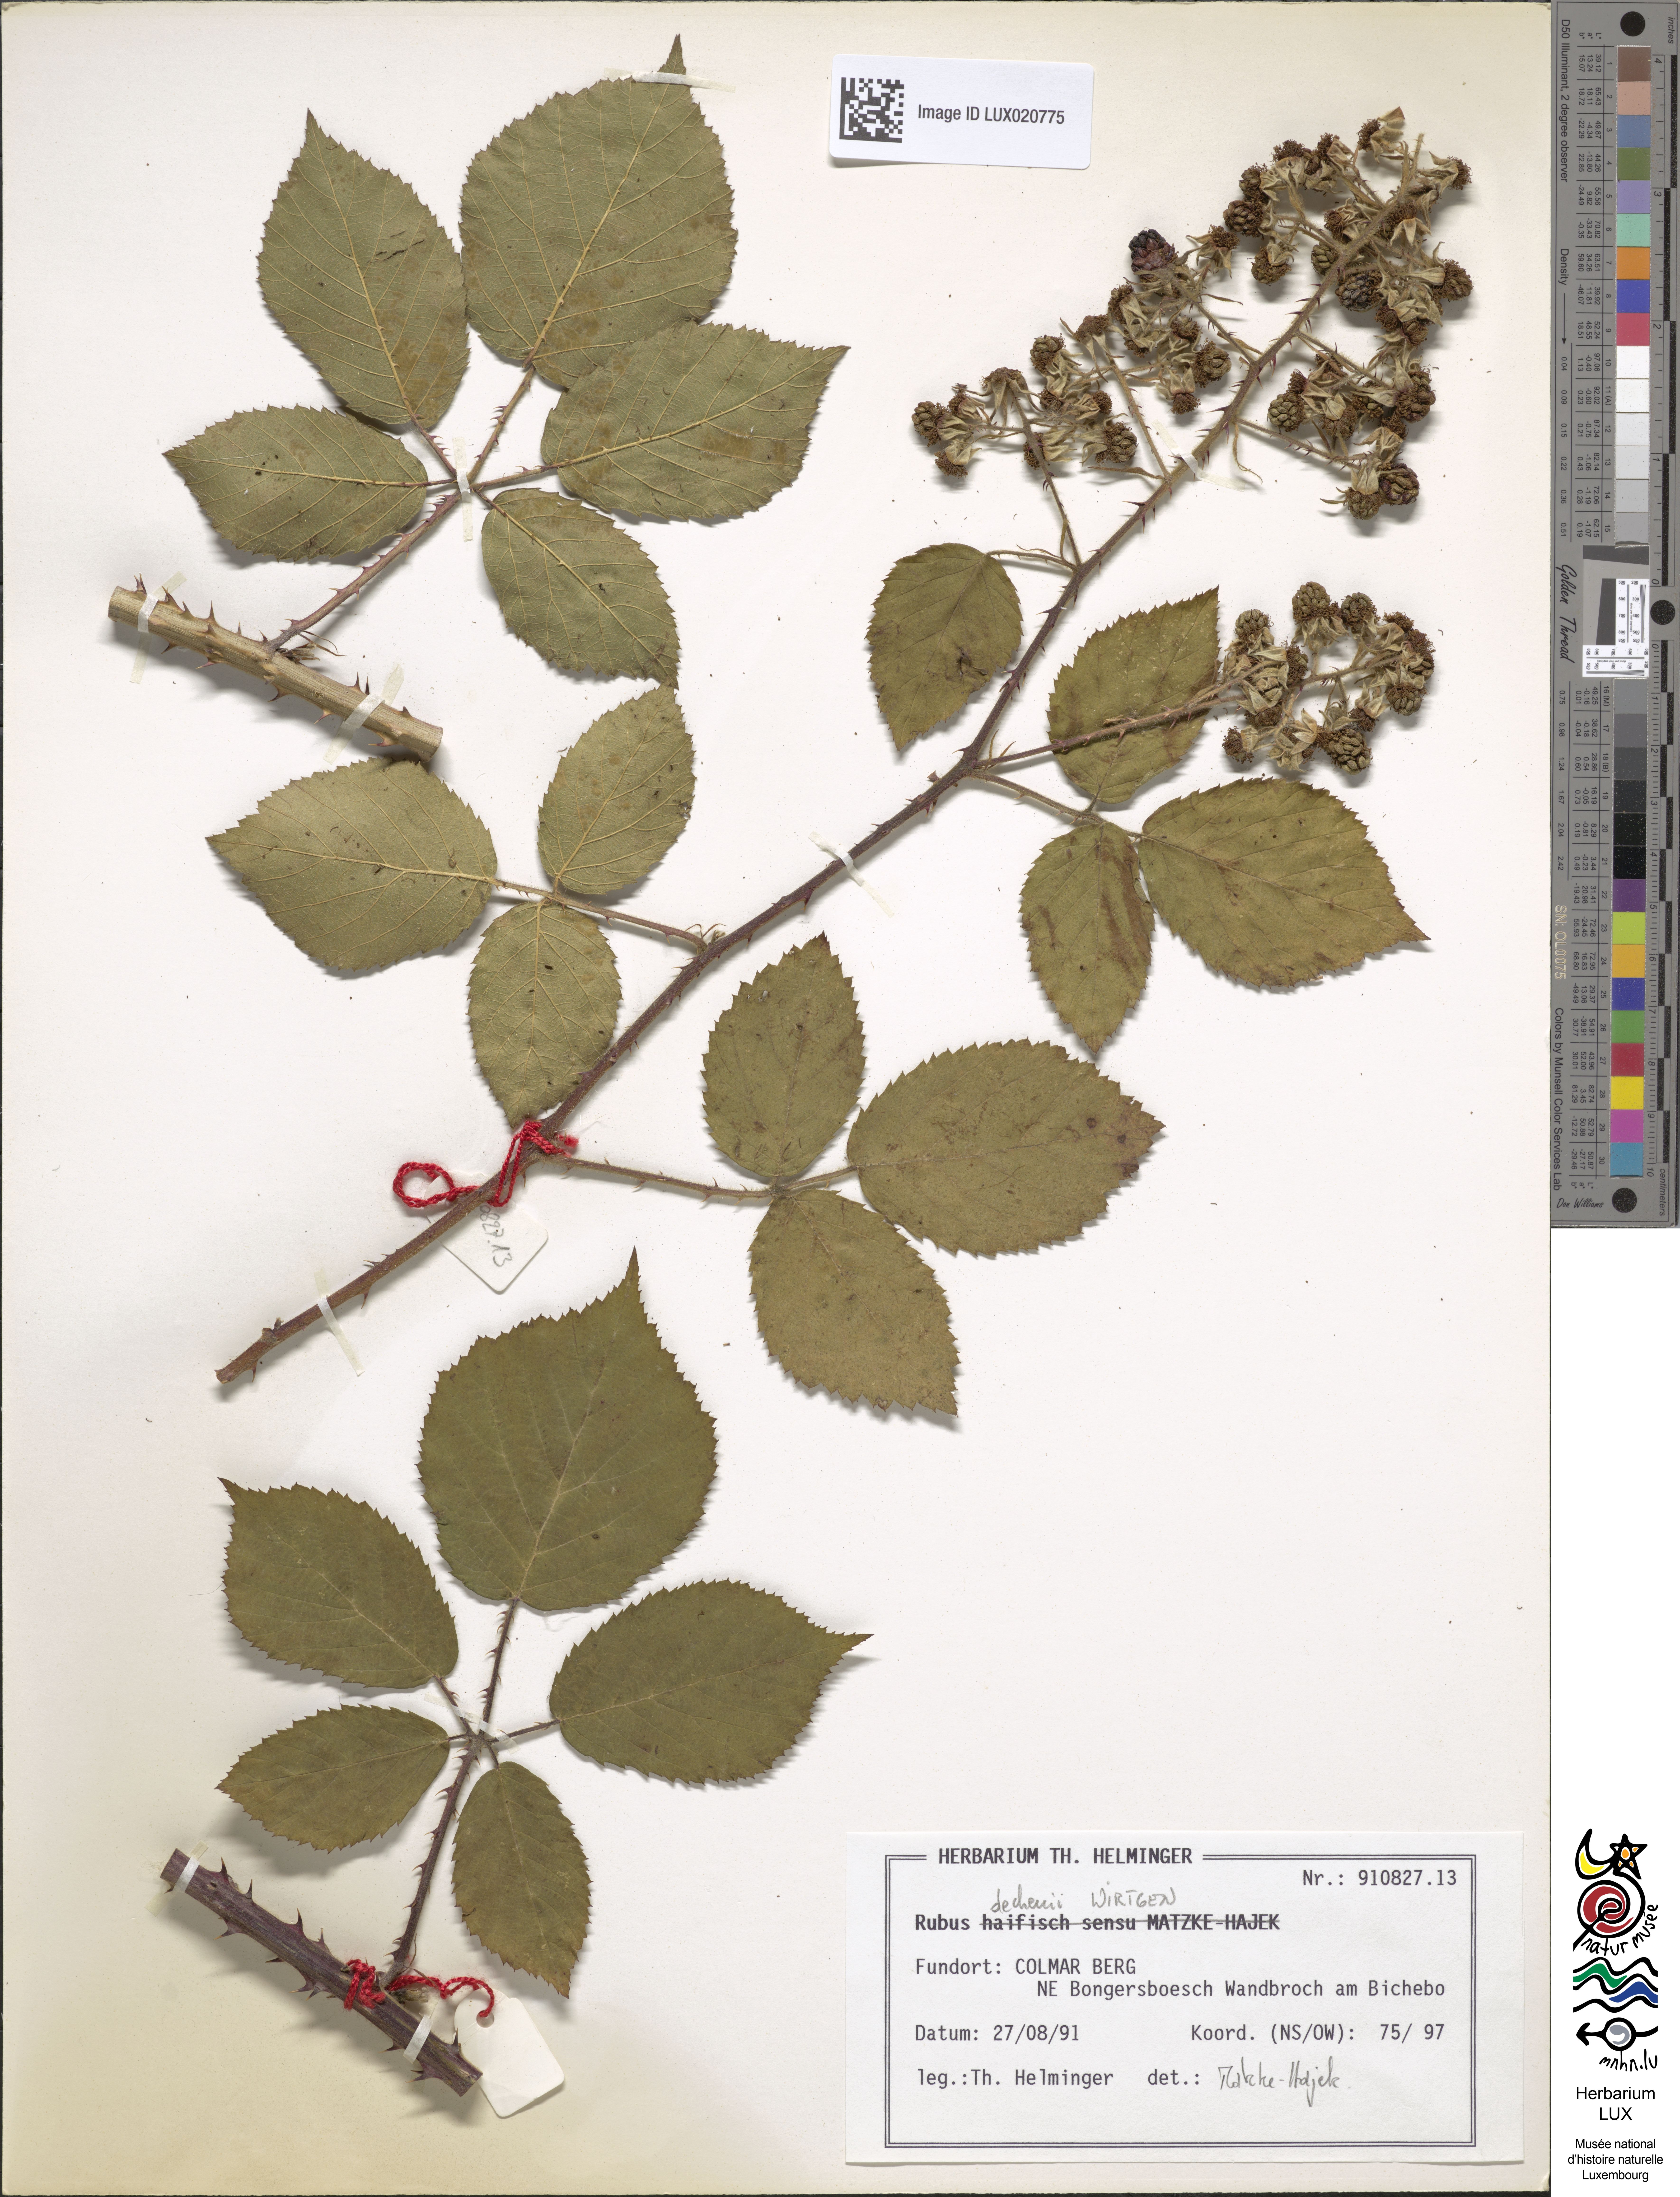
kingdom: Plantae
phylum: Tracheophyta
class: Magnoliopsida
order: Rosales
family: Rosaceae
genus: Rubus
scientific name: Rubus dechenii
